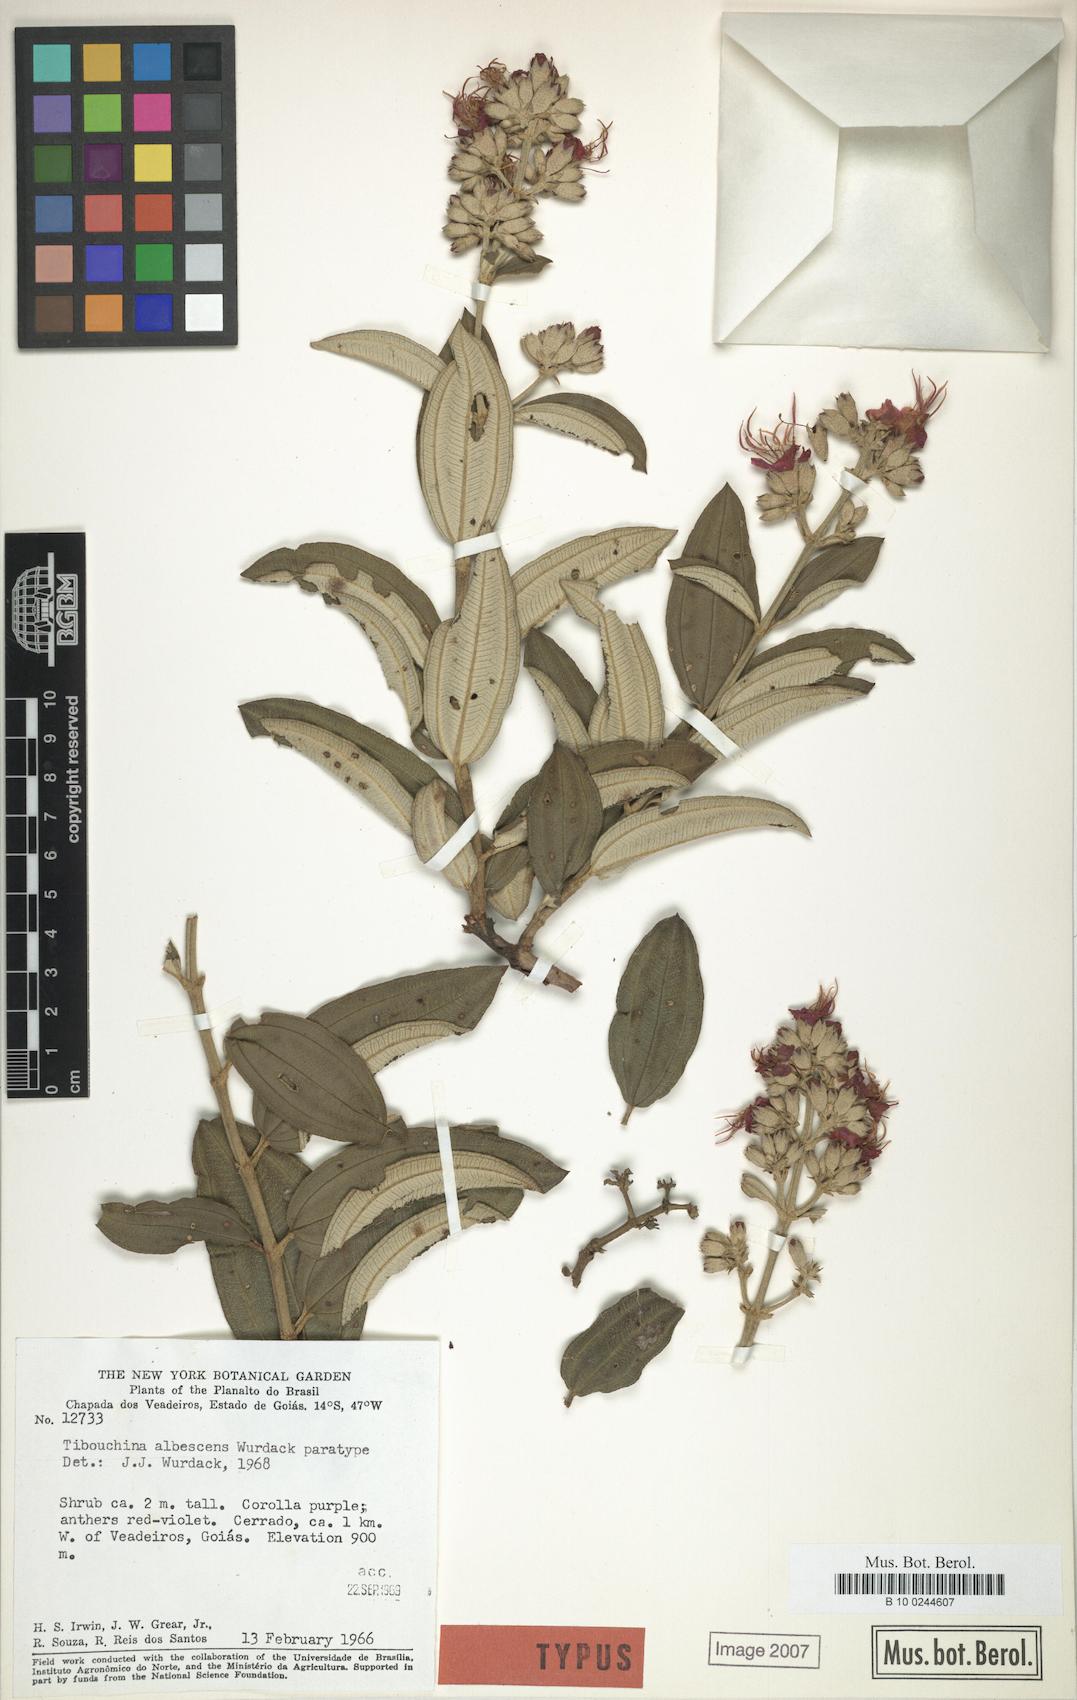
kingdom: Plantae
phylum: Tracheophyta
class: Magnoliopsida
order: Myrtales
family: Melastomataceae
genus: Tibouchina
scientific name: Tibouchina albescens
